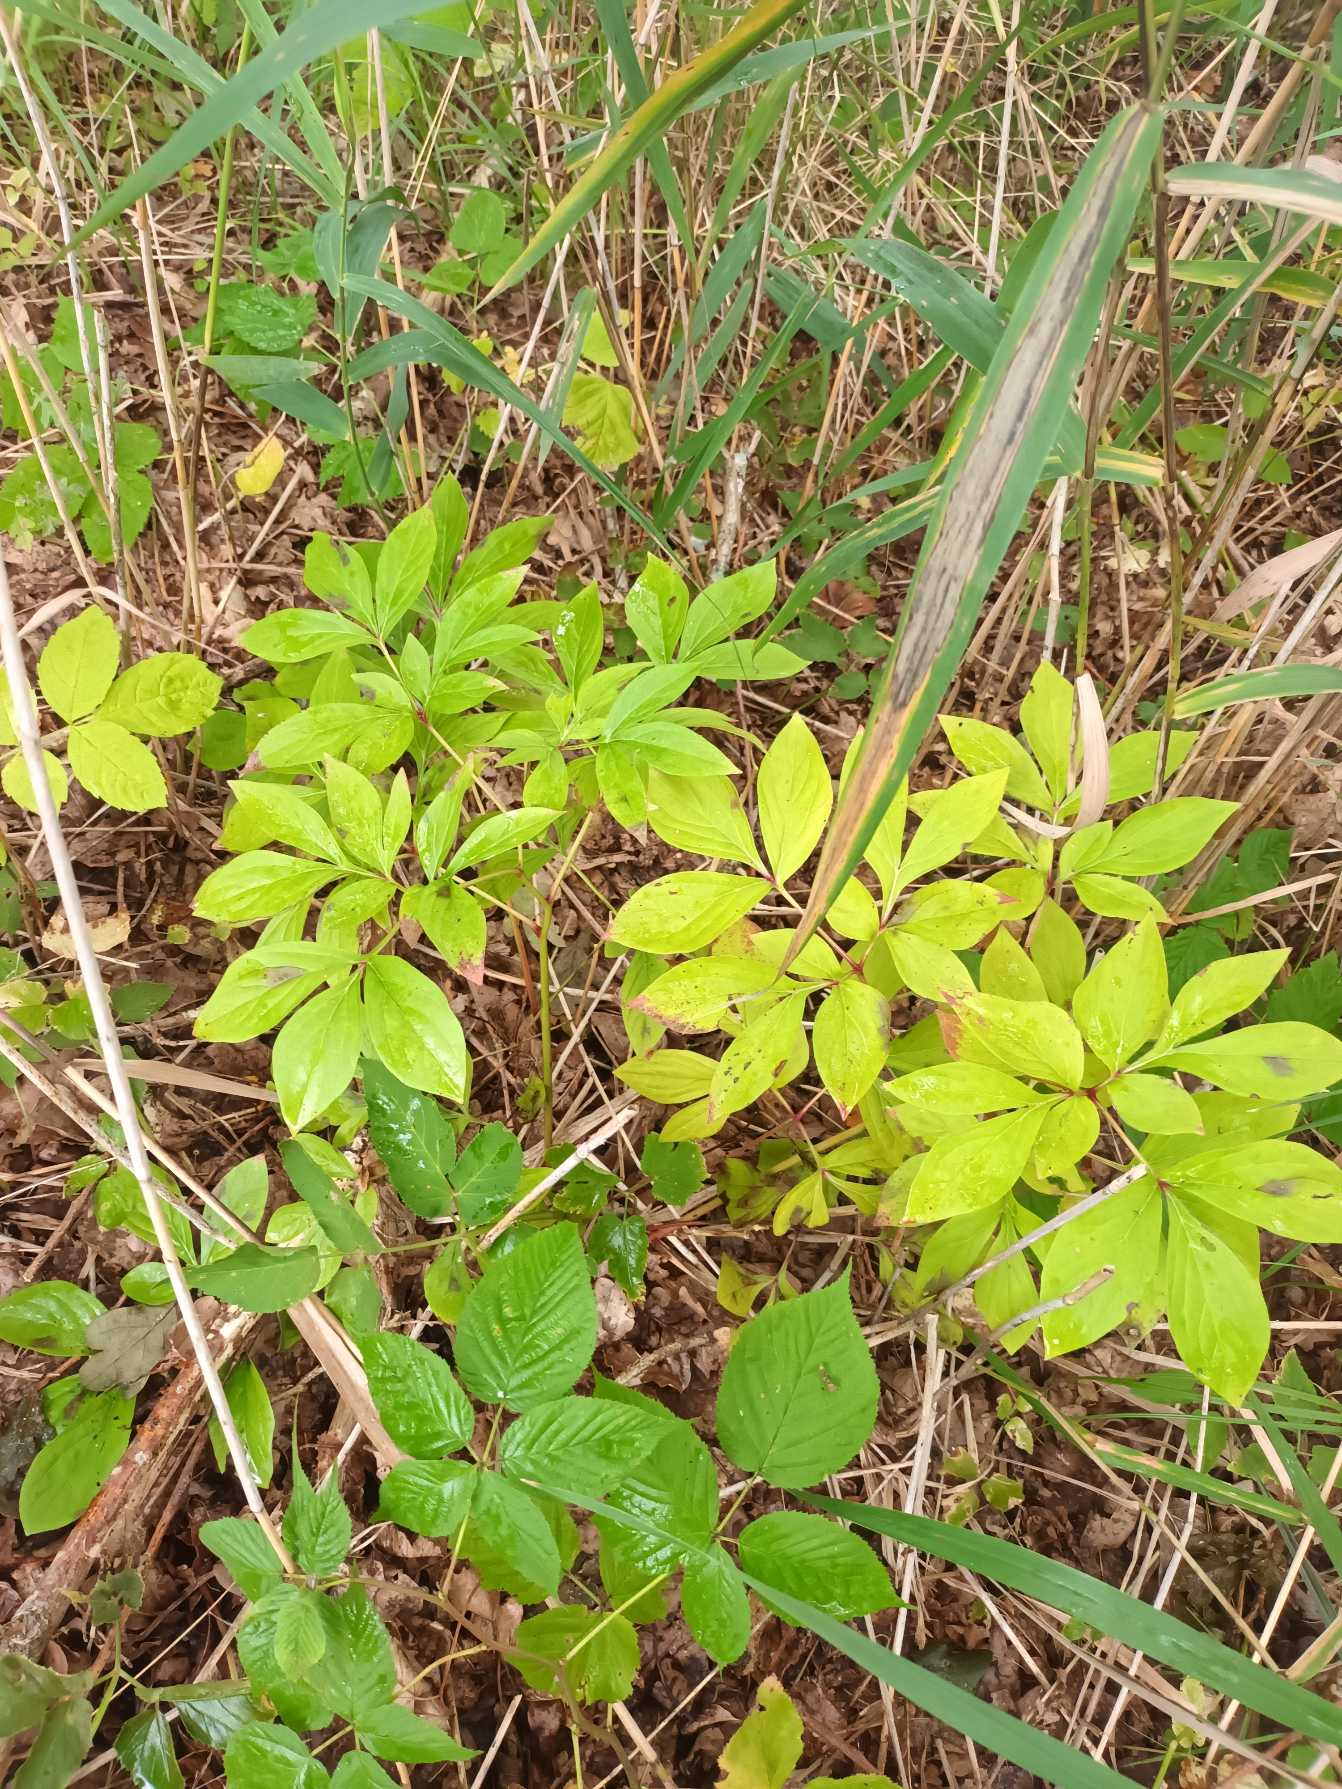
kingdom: Plantae
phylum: Tracheophyta
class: Magnoliopsida
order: Saxifragales
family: Paeoniaceae
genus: Paeonia
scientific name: Paeonia officinalis
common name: Bonderose
